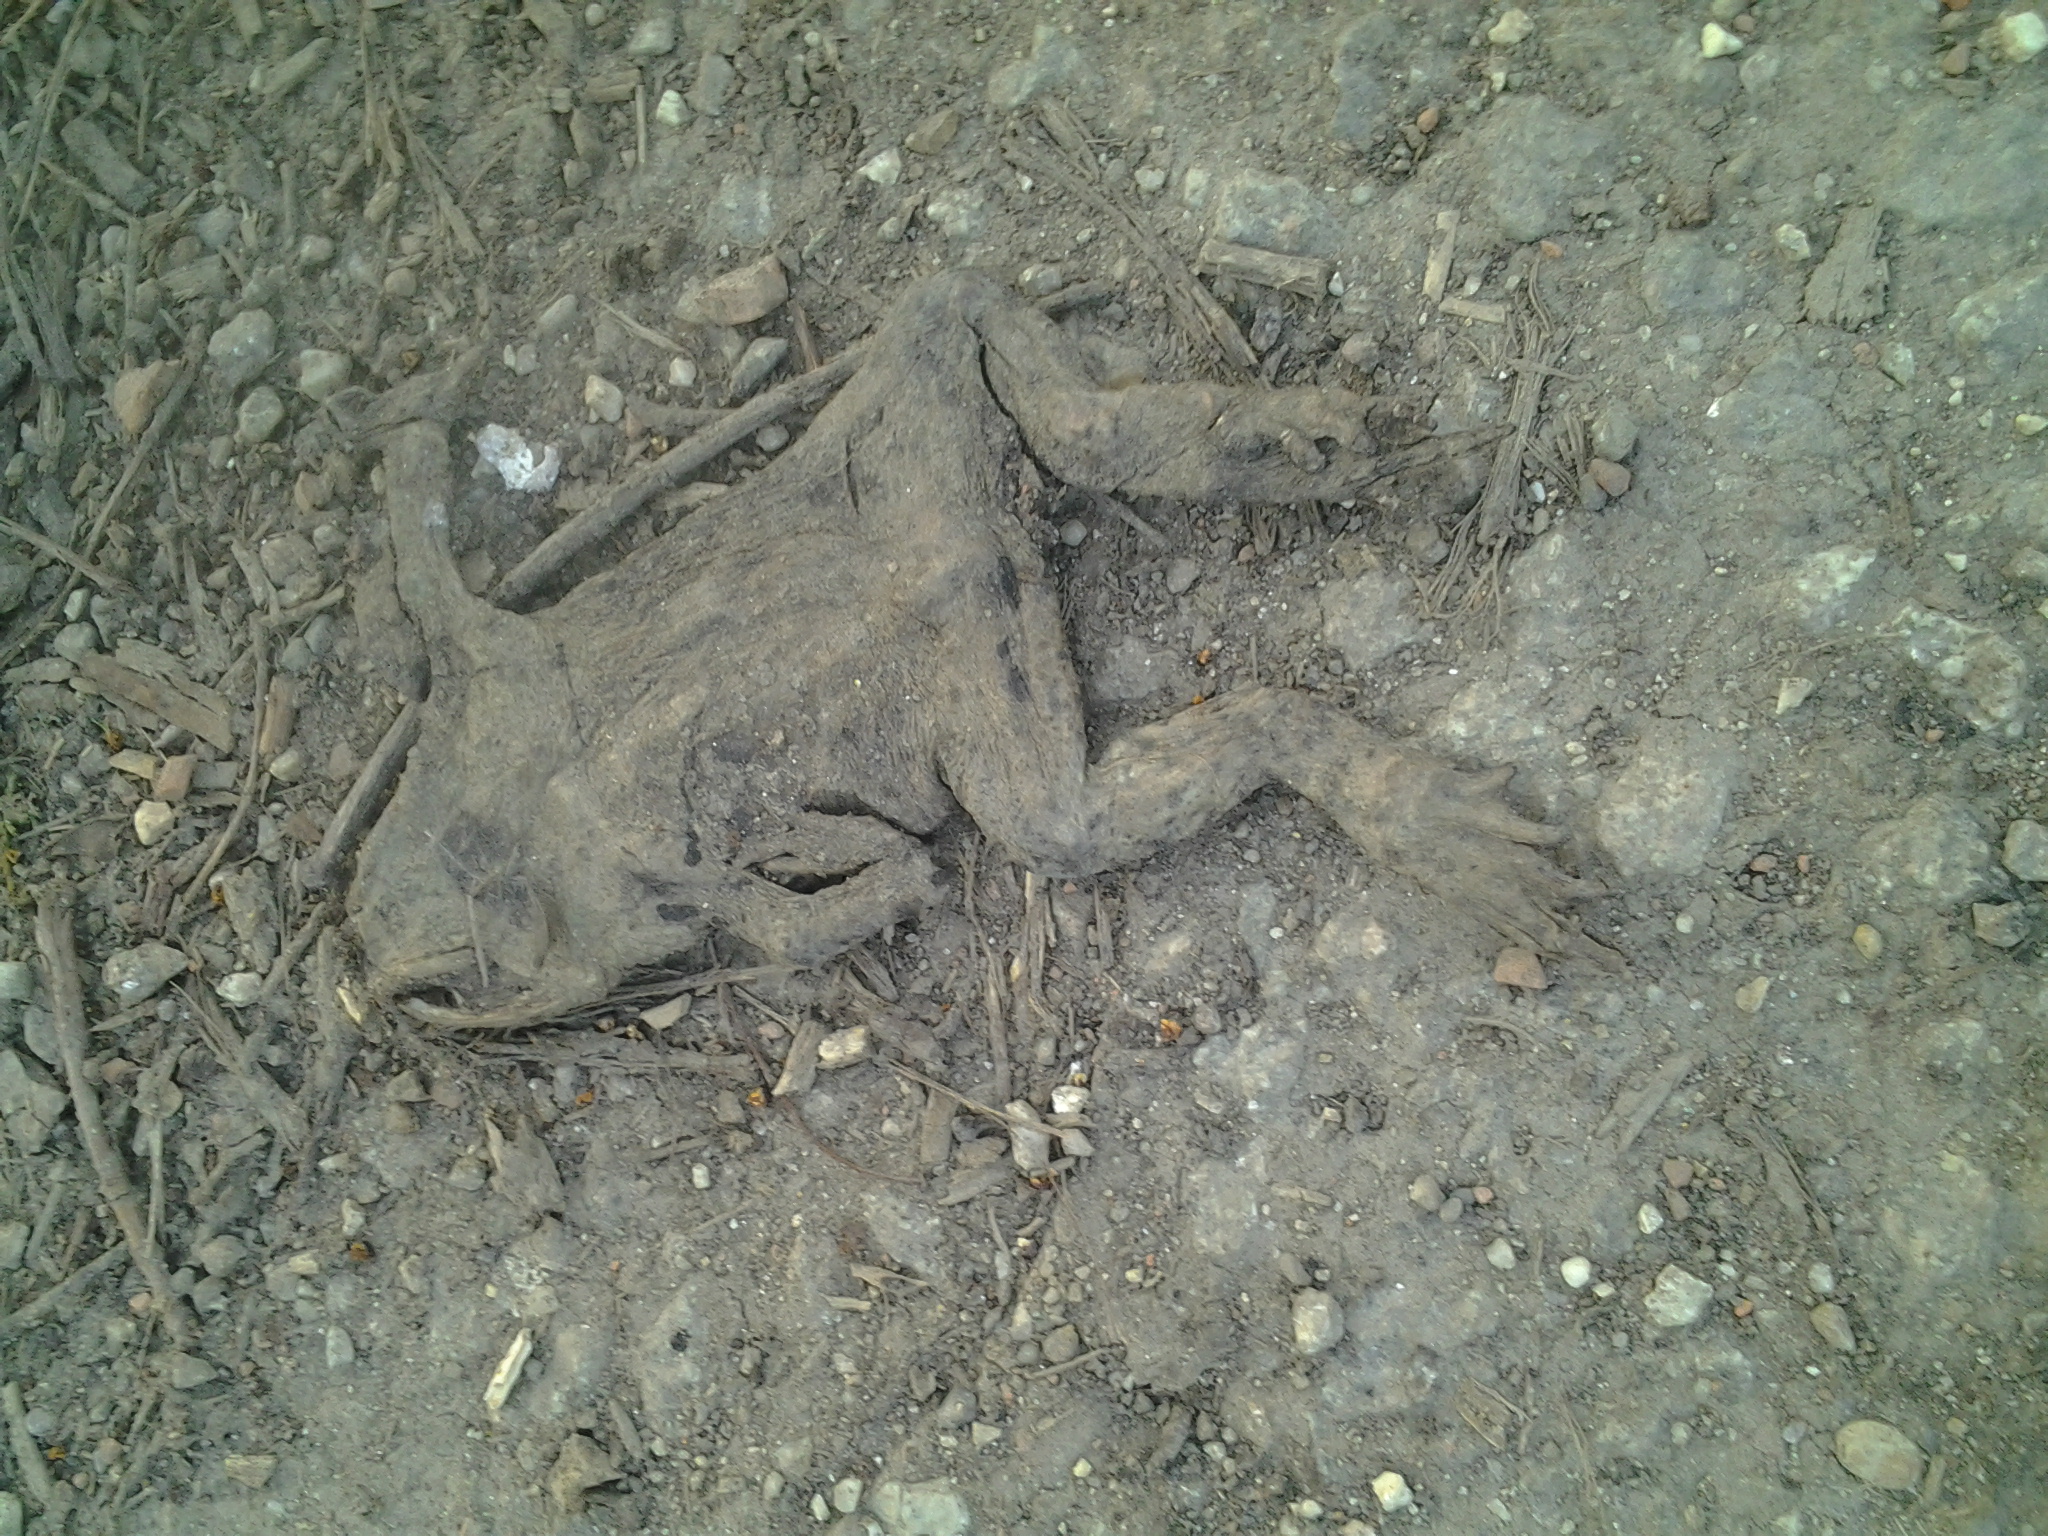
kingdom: Animalia
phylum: Chordata
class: Amphibia
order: Anura
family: Bufonidae
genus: Bufo
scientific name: Bufo bufo
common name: Common toad
